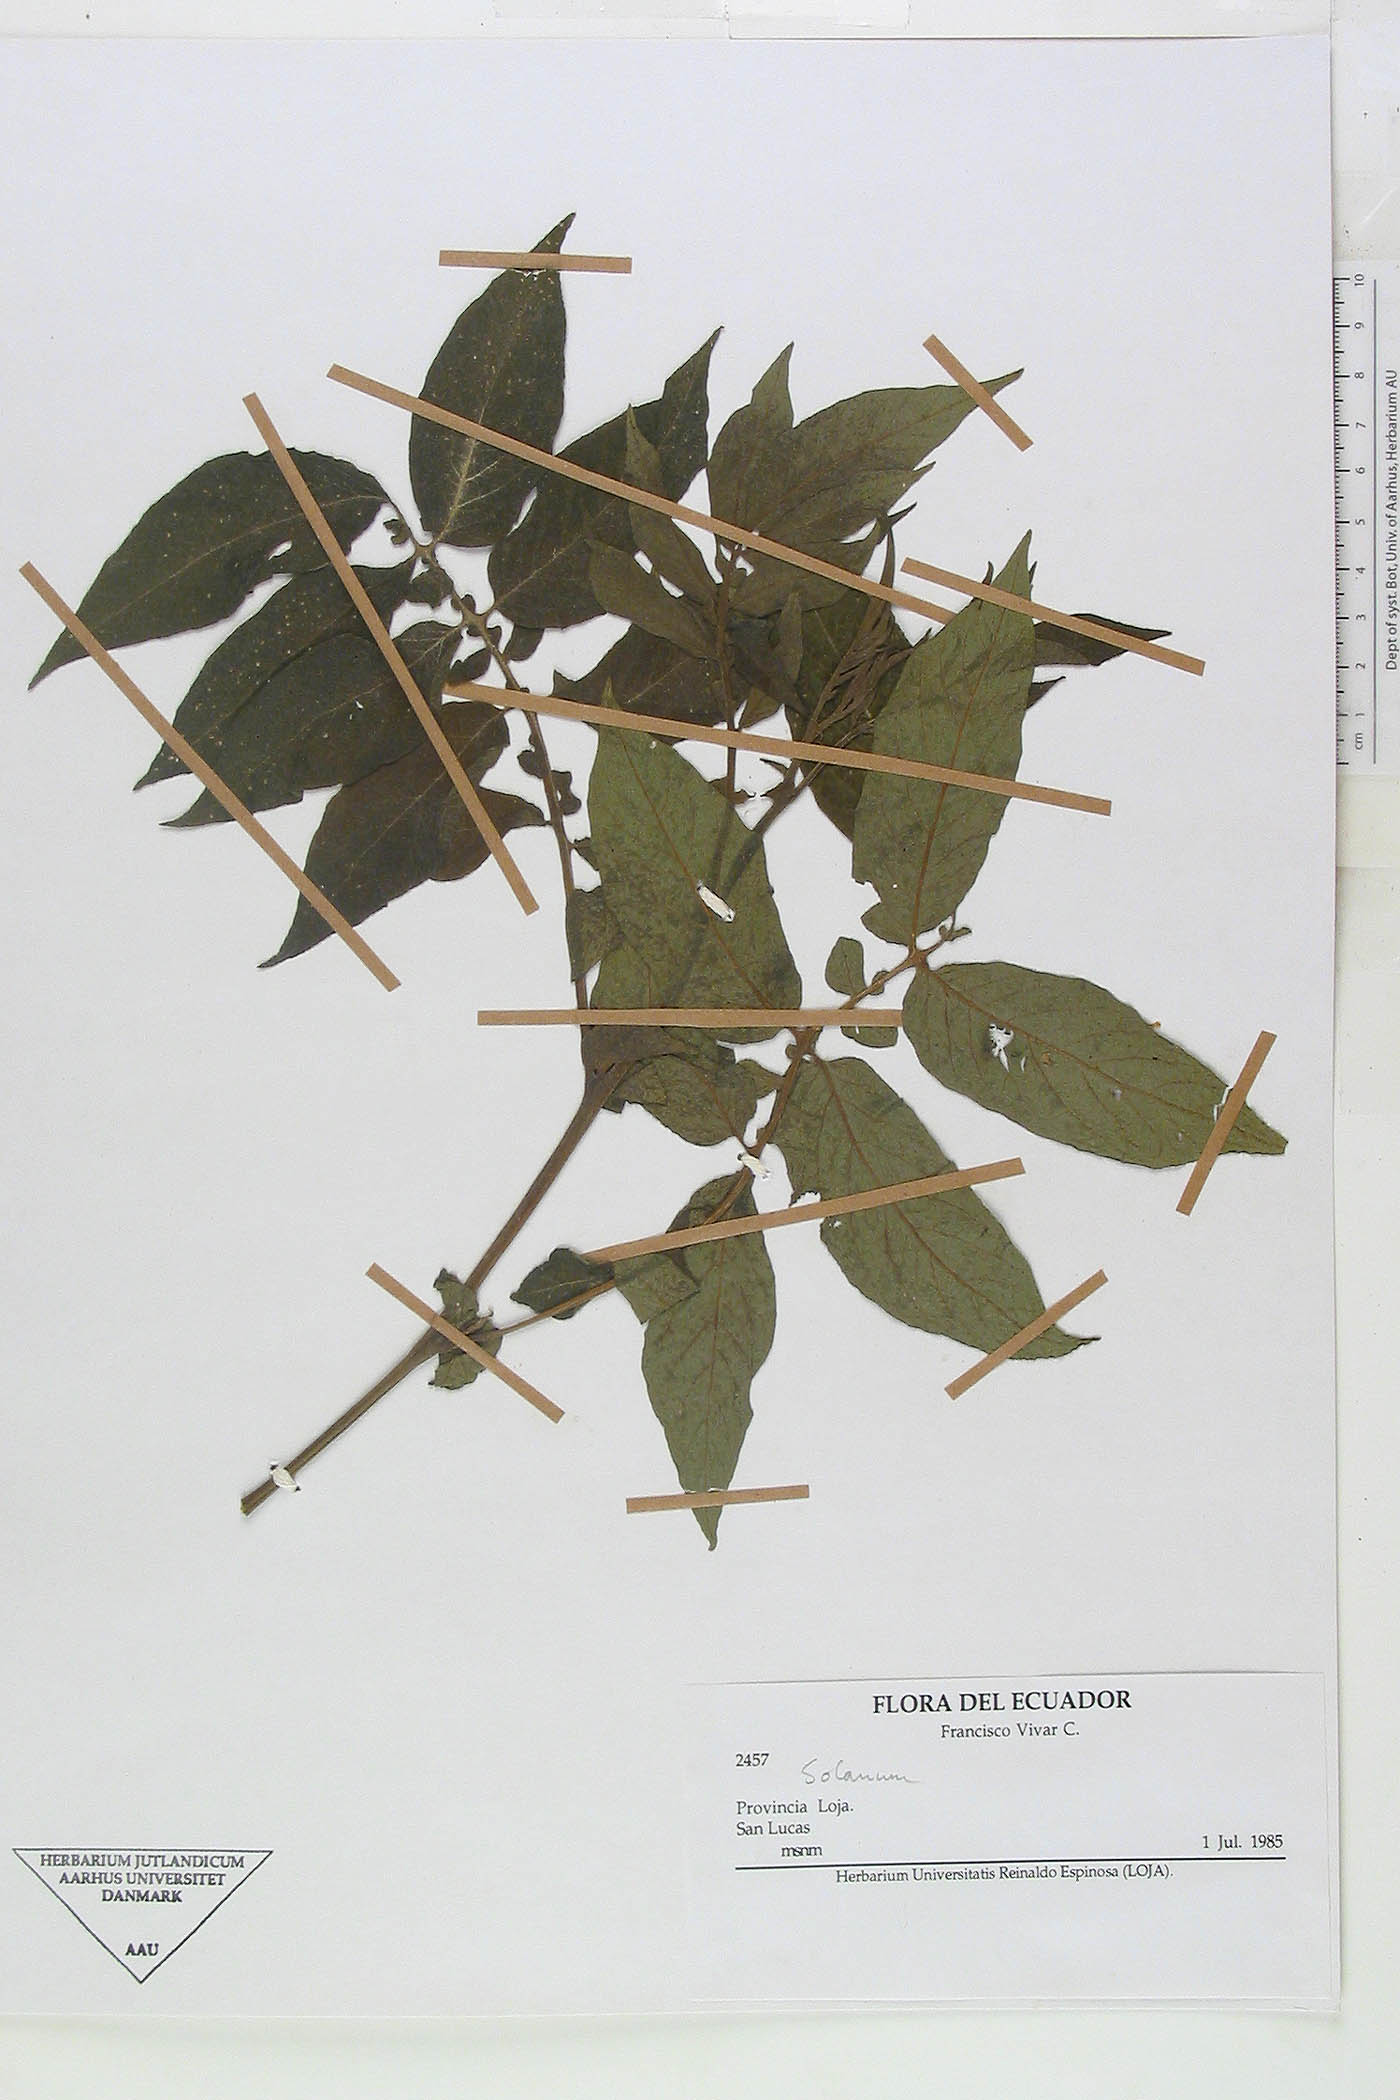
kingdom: Plantae
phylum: Tracheophyta
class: Magnoliopsida
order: Solanales
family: Solanaceae
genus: Solanum
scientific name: Solanum ochranthum
